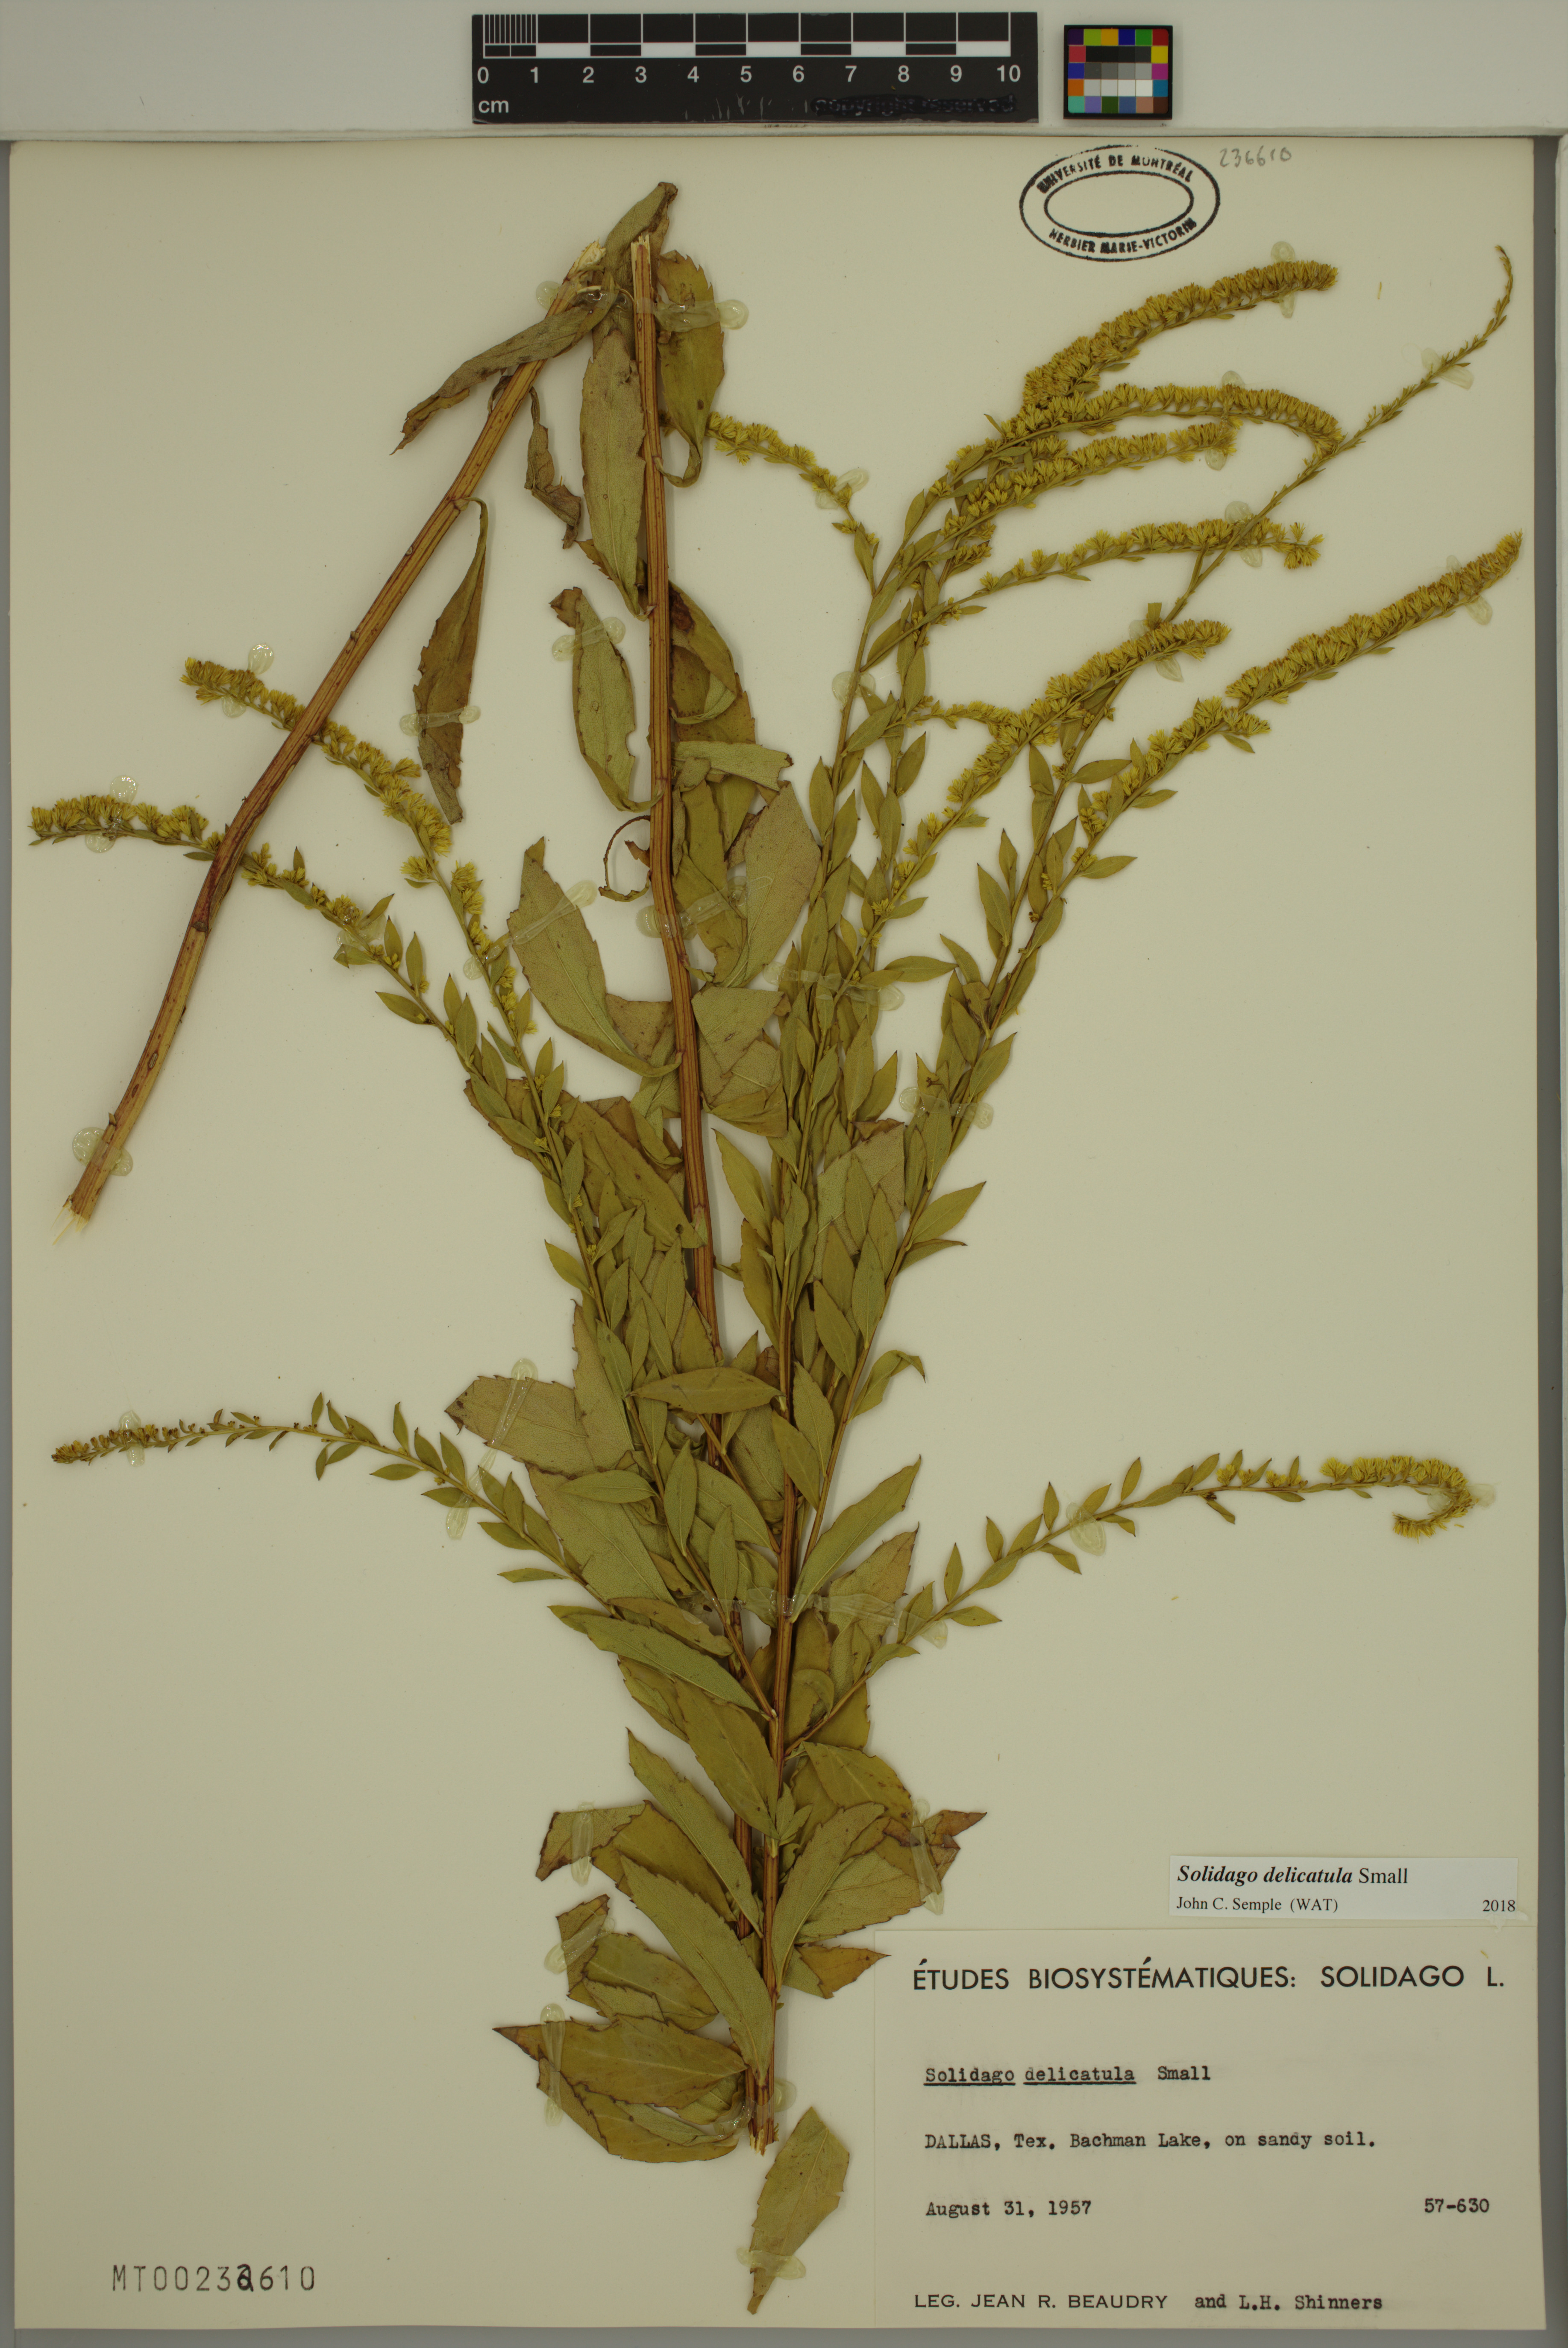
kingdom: Plantae
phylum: Tracheophyta
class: Magnoliopsida
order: Asterales
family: Asteraceae
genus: Solidago
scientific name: Solidago delicatula
